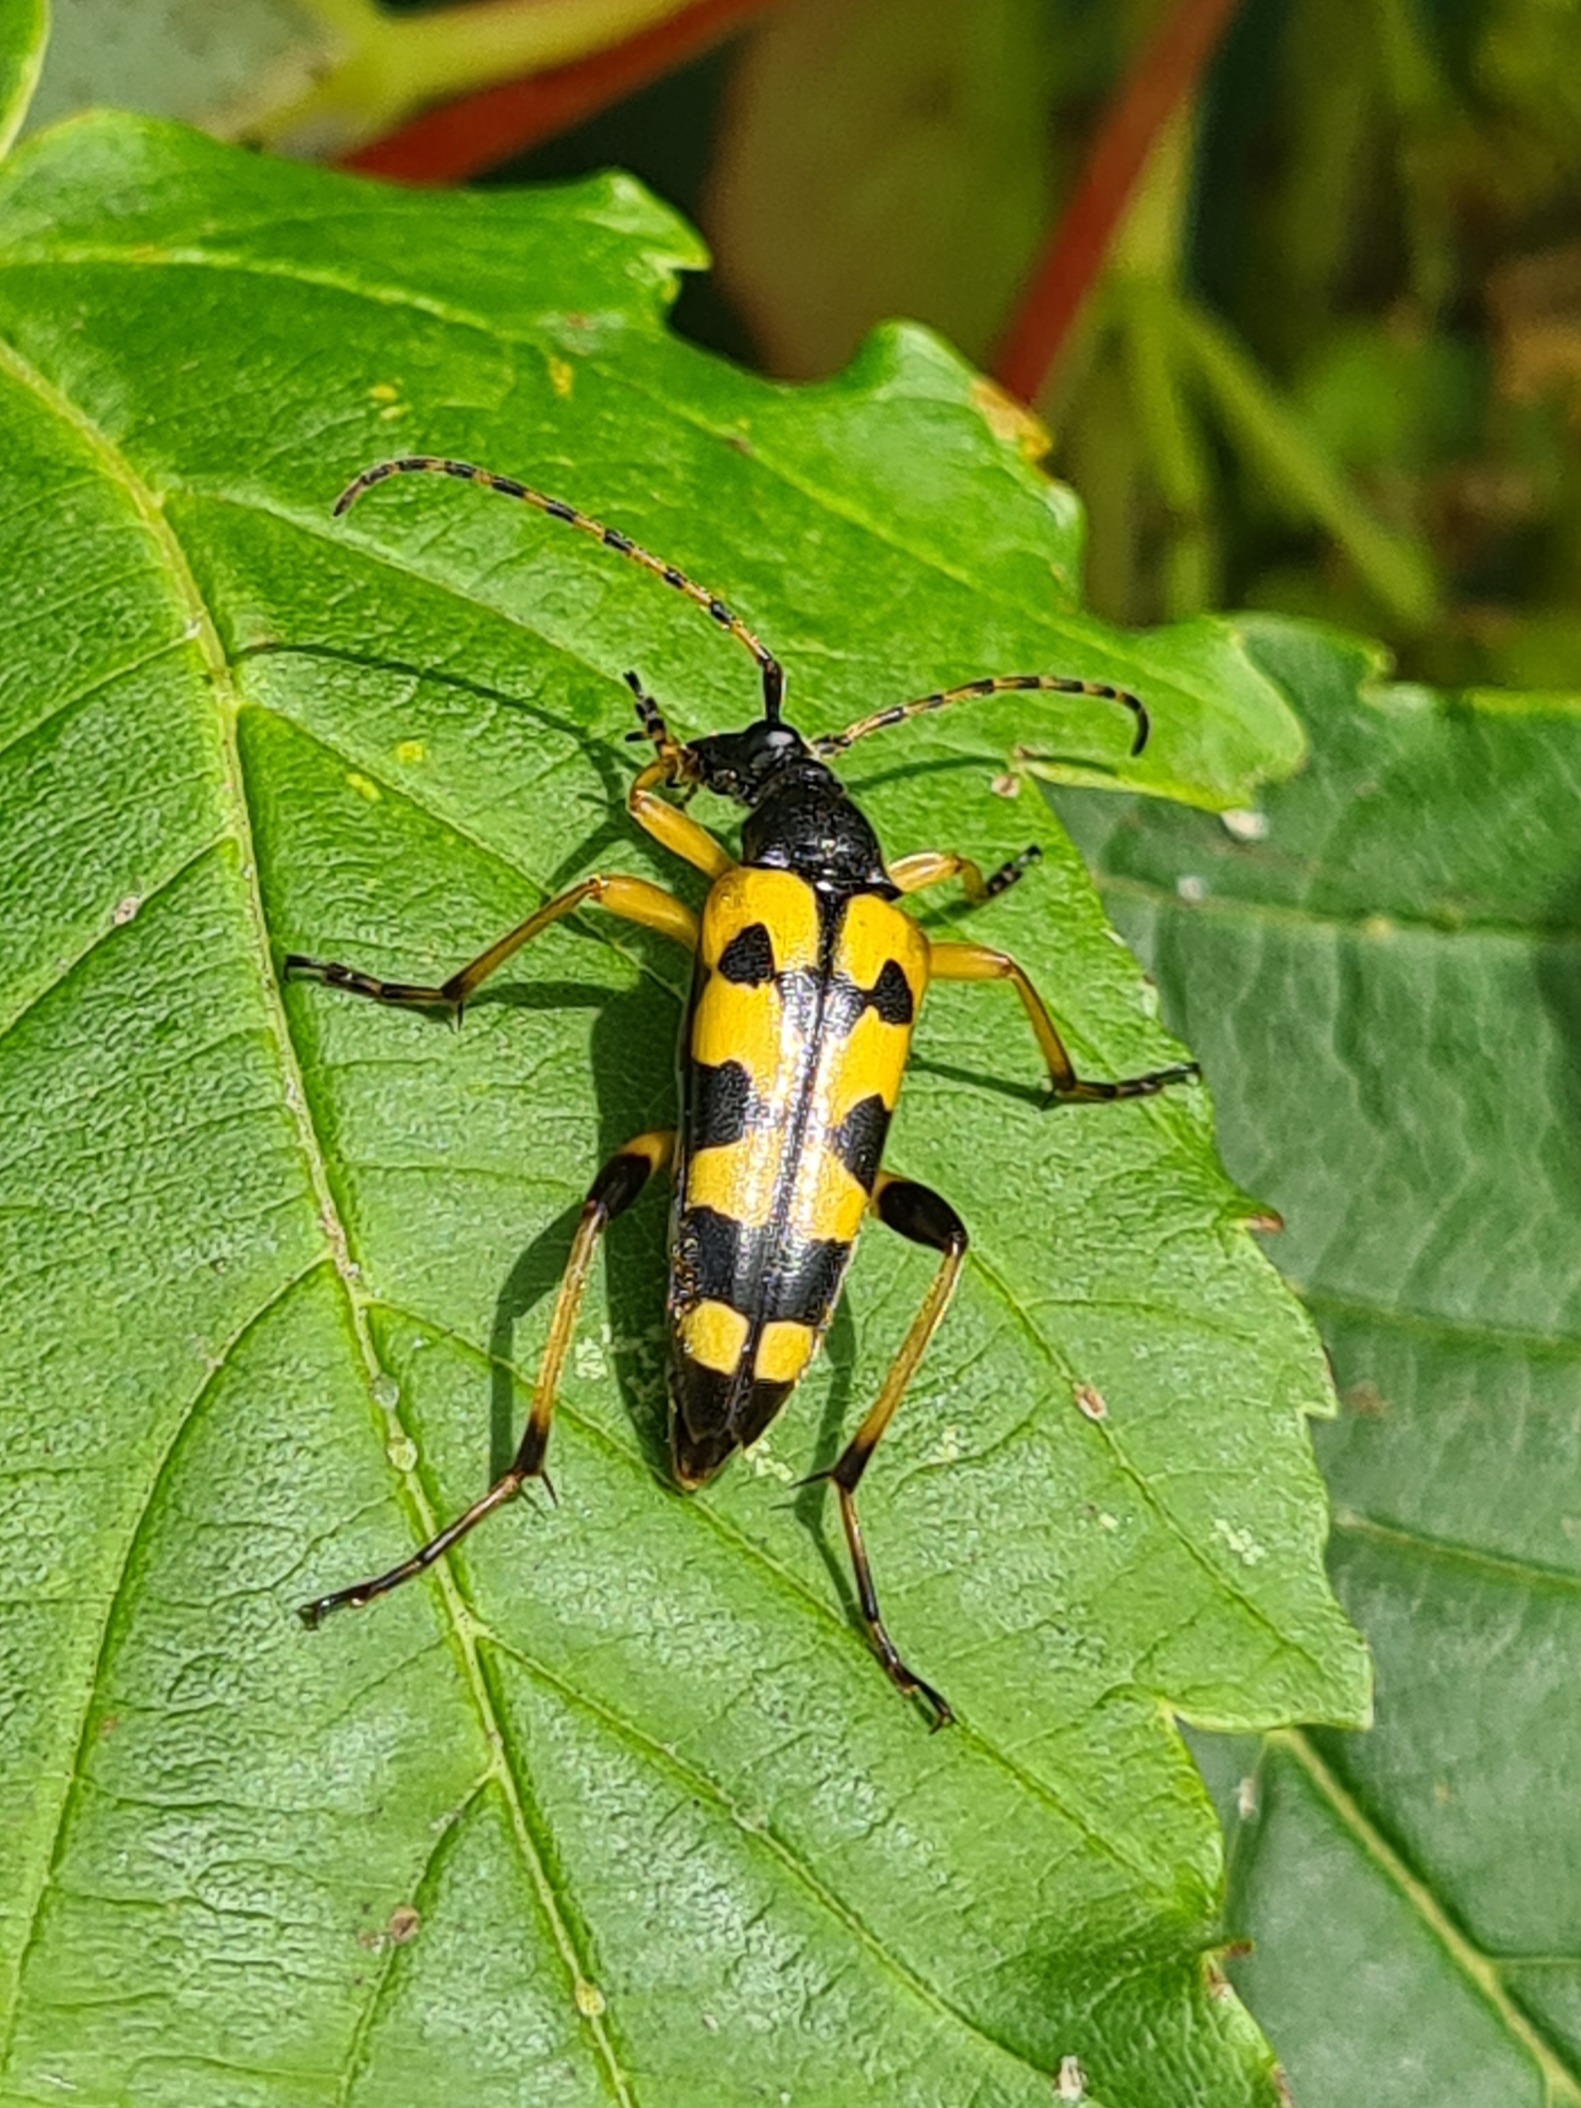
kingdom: Animalia
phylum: Arthropoda
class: Insecta
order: Coleoptera
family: Cerambycidae
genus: Rutpela
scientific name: Rutpela maculata
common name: Sydlig blomsterbuk
